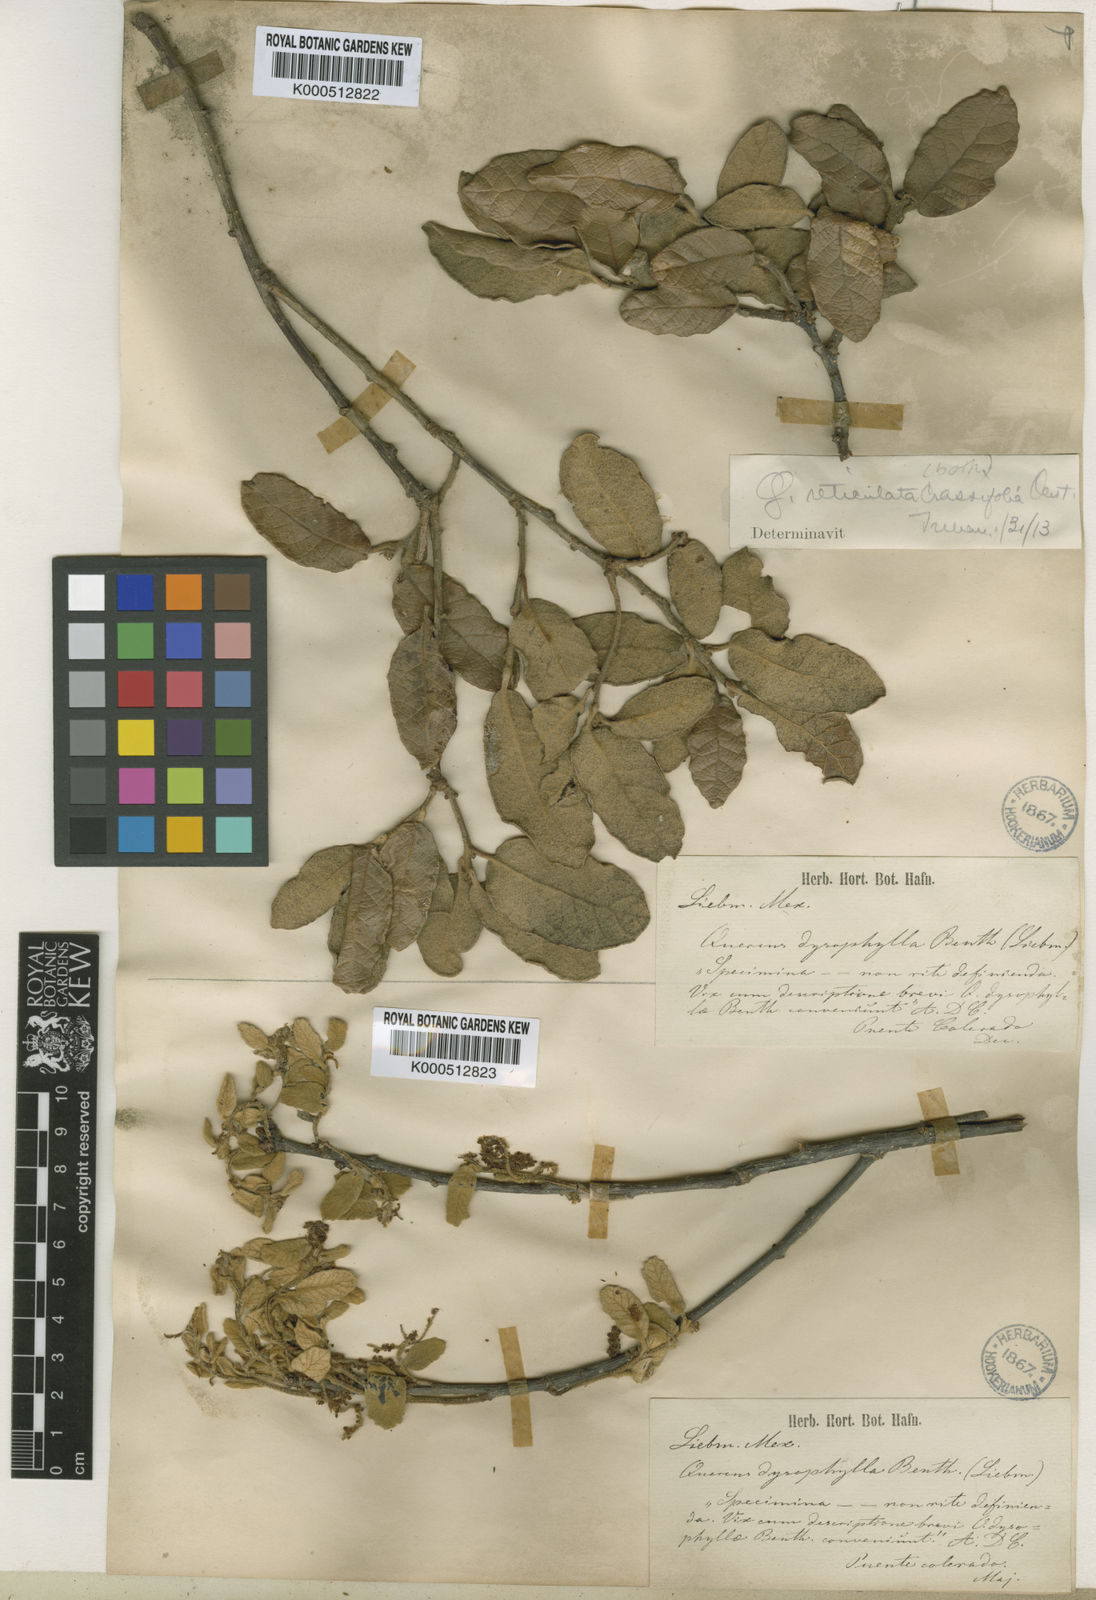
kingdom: Plantae
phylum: Tracheophyta
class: Magnoliopsida
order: Fagales
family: Fagaceae
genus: Quercus
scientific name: Quercus aculcingensis
